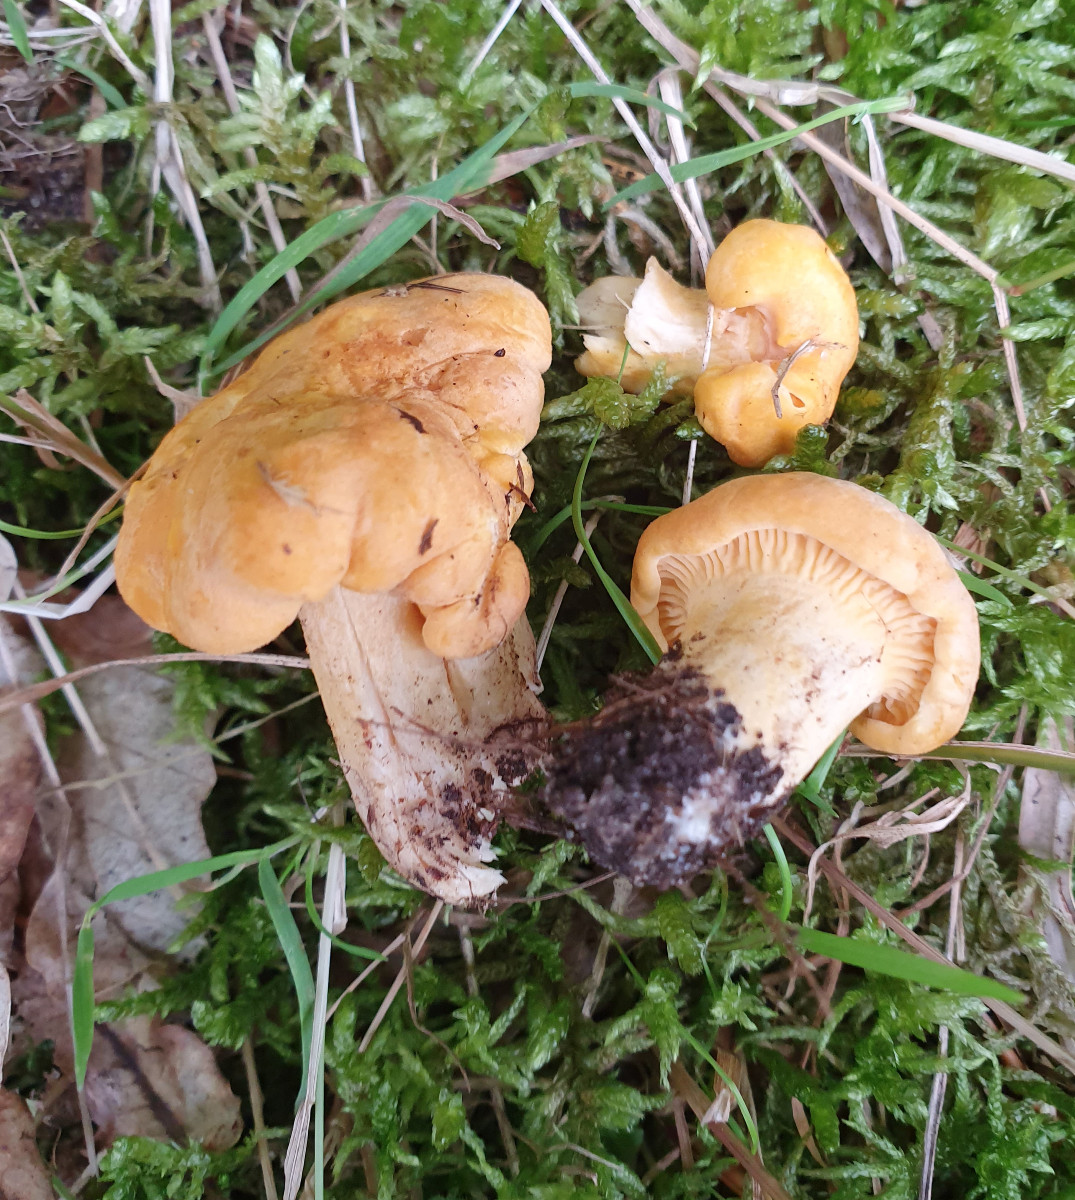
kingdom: Fungi
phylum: Basidiomycota
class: Agaricomycetes
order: Cantharellales
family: Hydnaceae
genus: Cantharellus
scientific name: Cantharellus cibarius
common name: almindelig kantarel
